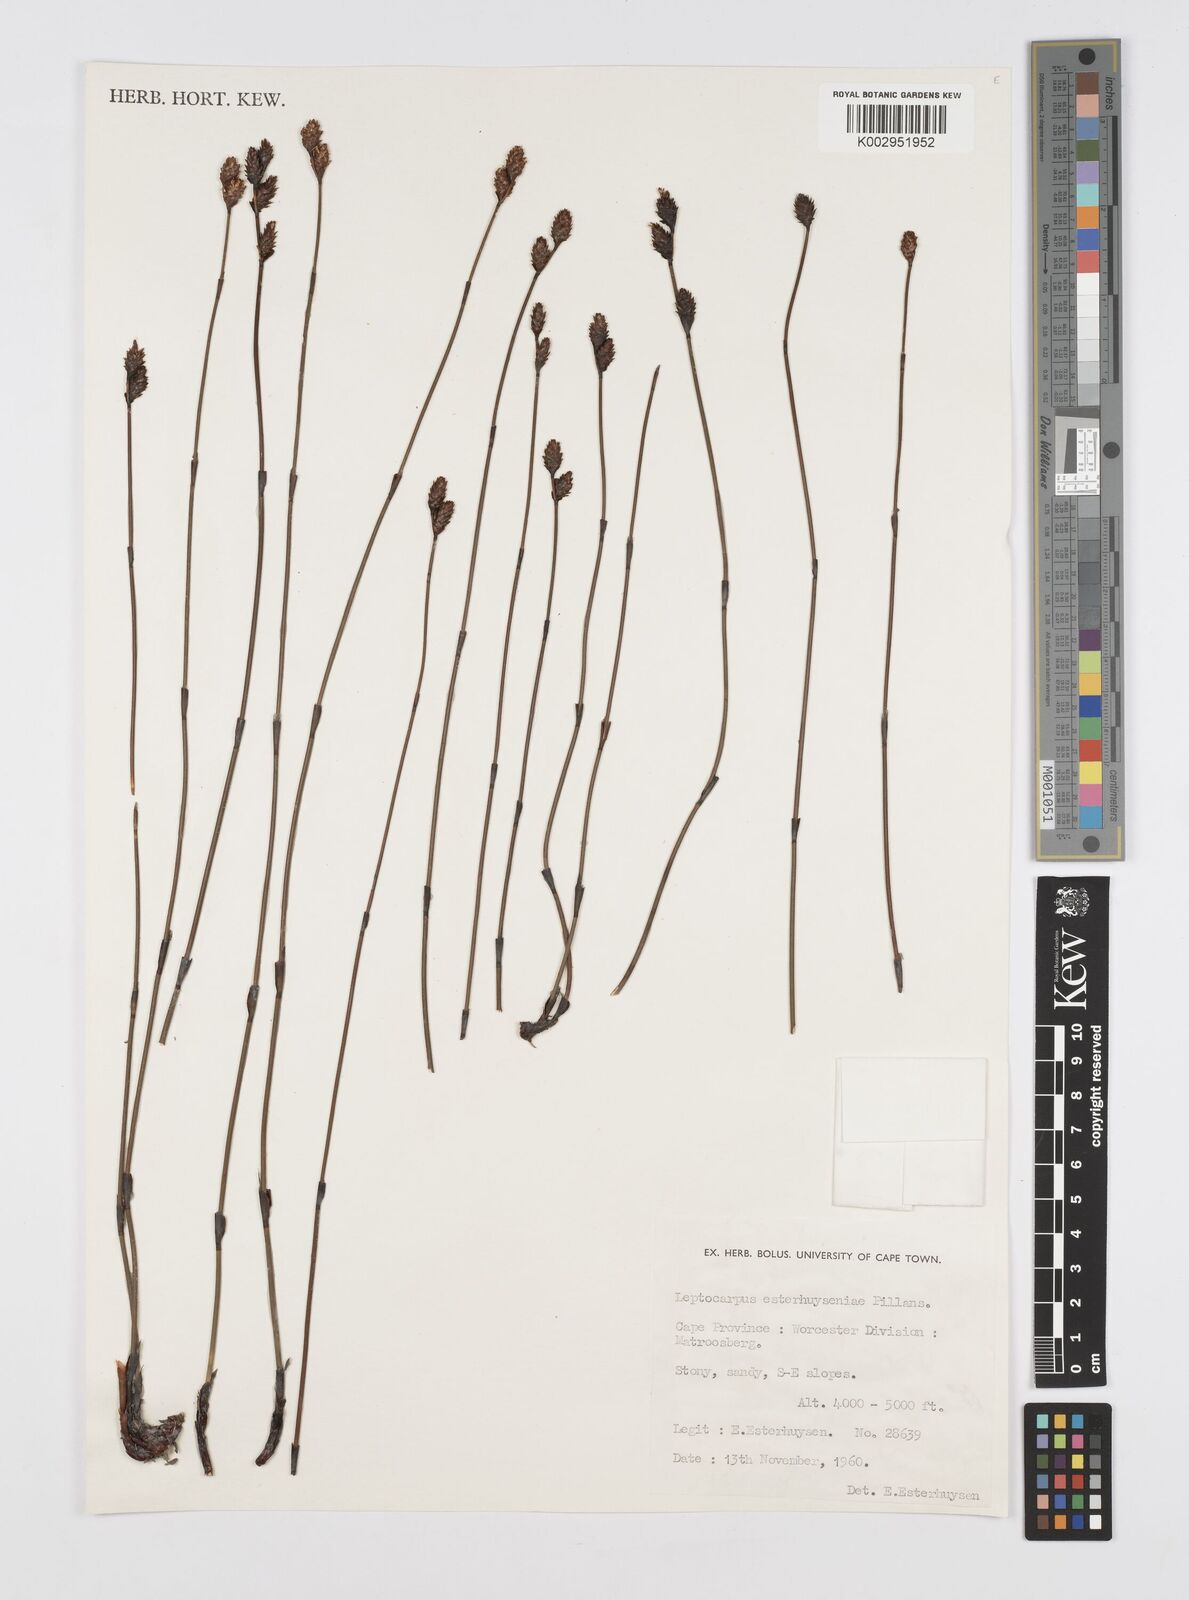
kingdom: Plantae
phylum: Tracheophyta
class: Liliopsida
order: Poales
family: Restionaceae
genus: Restio
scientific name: Restio esterhuyseniae
